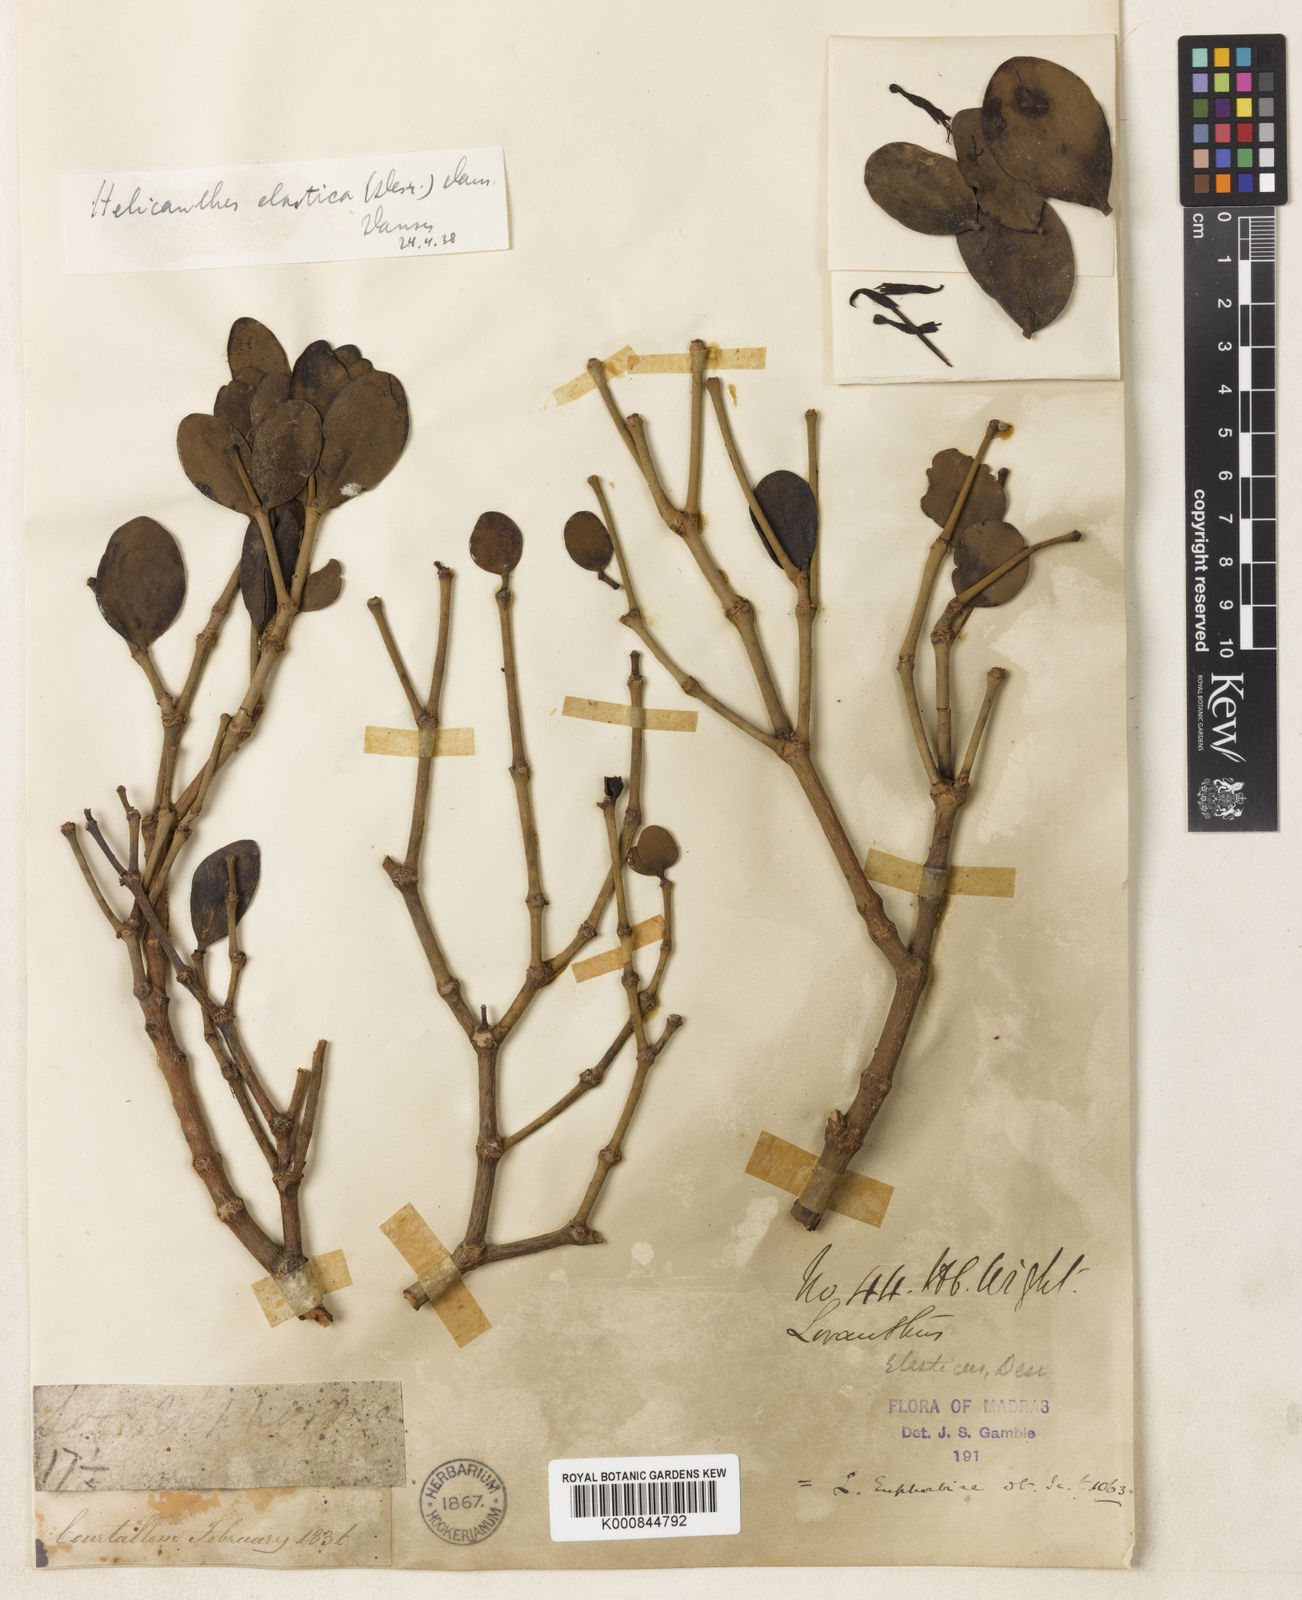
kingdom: Plantae
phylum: Tracheophyta
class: Magnoliopsida
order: Santalales
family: Loranthaceae
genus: Helicanthes
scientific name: Helicanthes elastica
